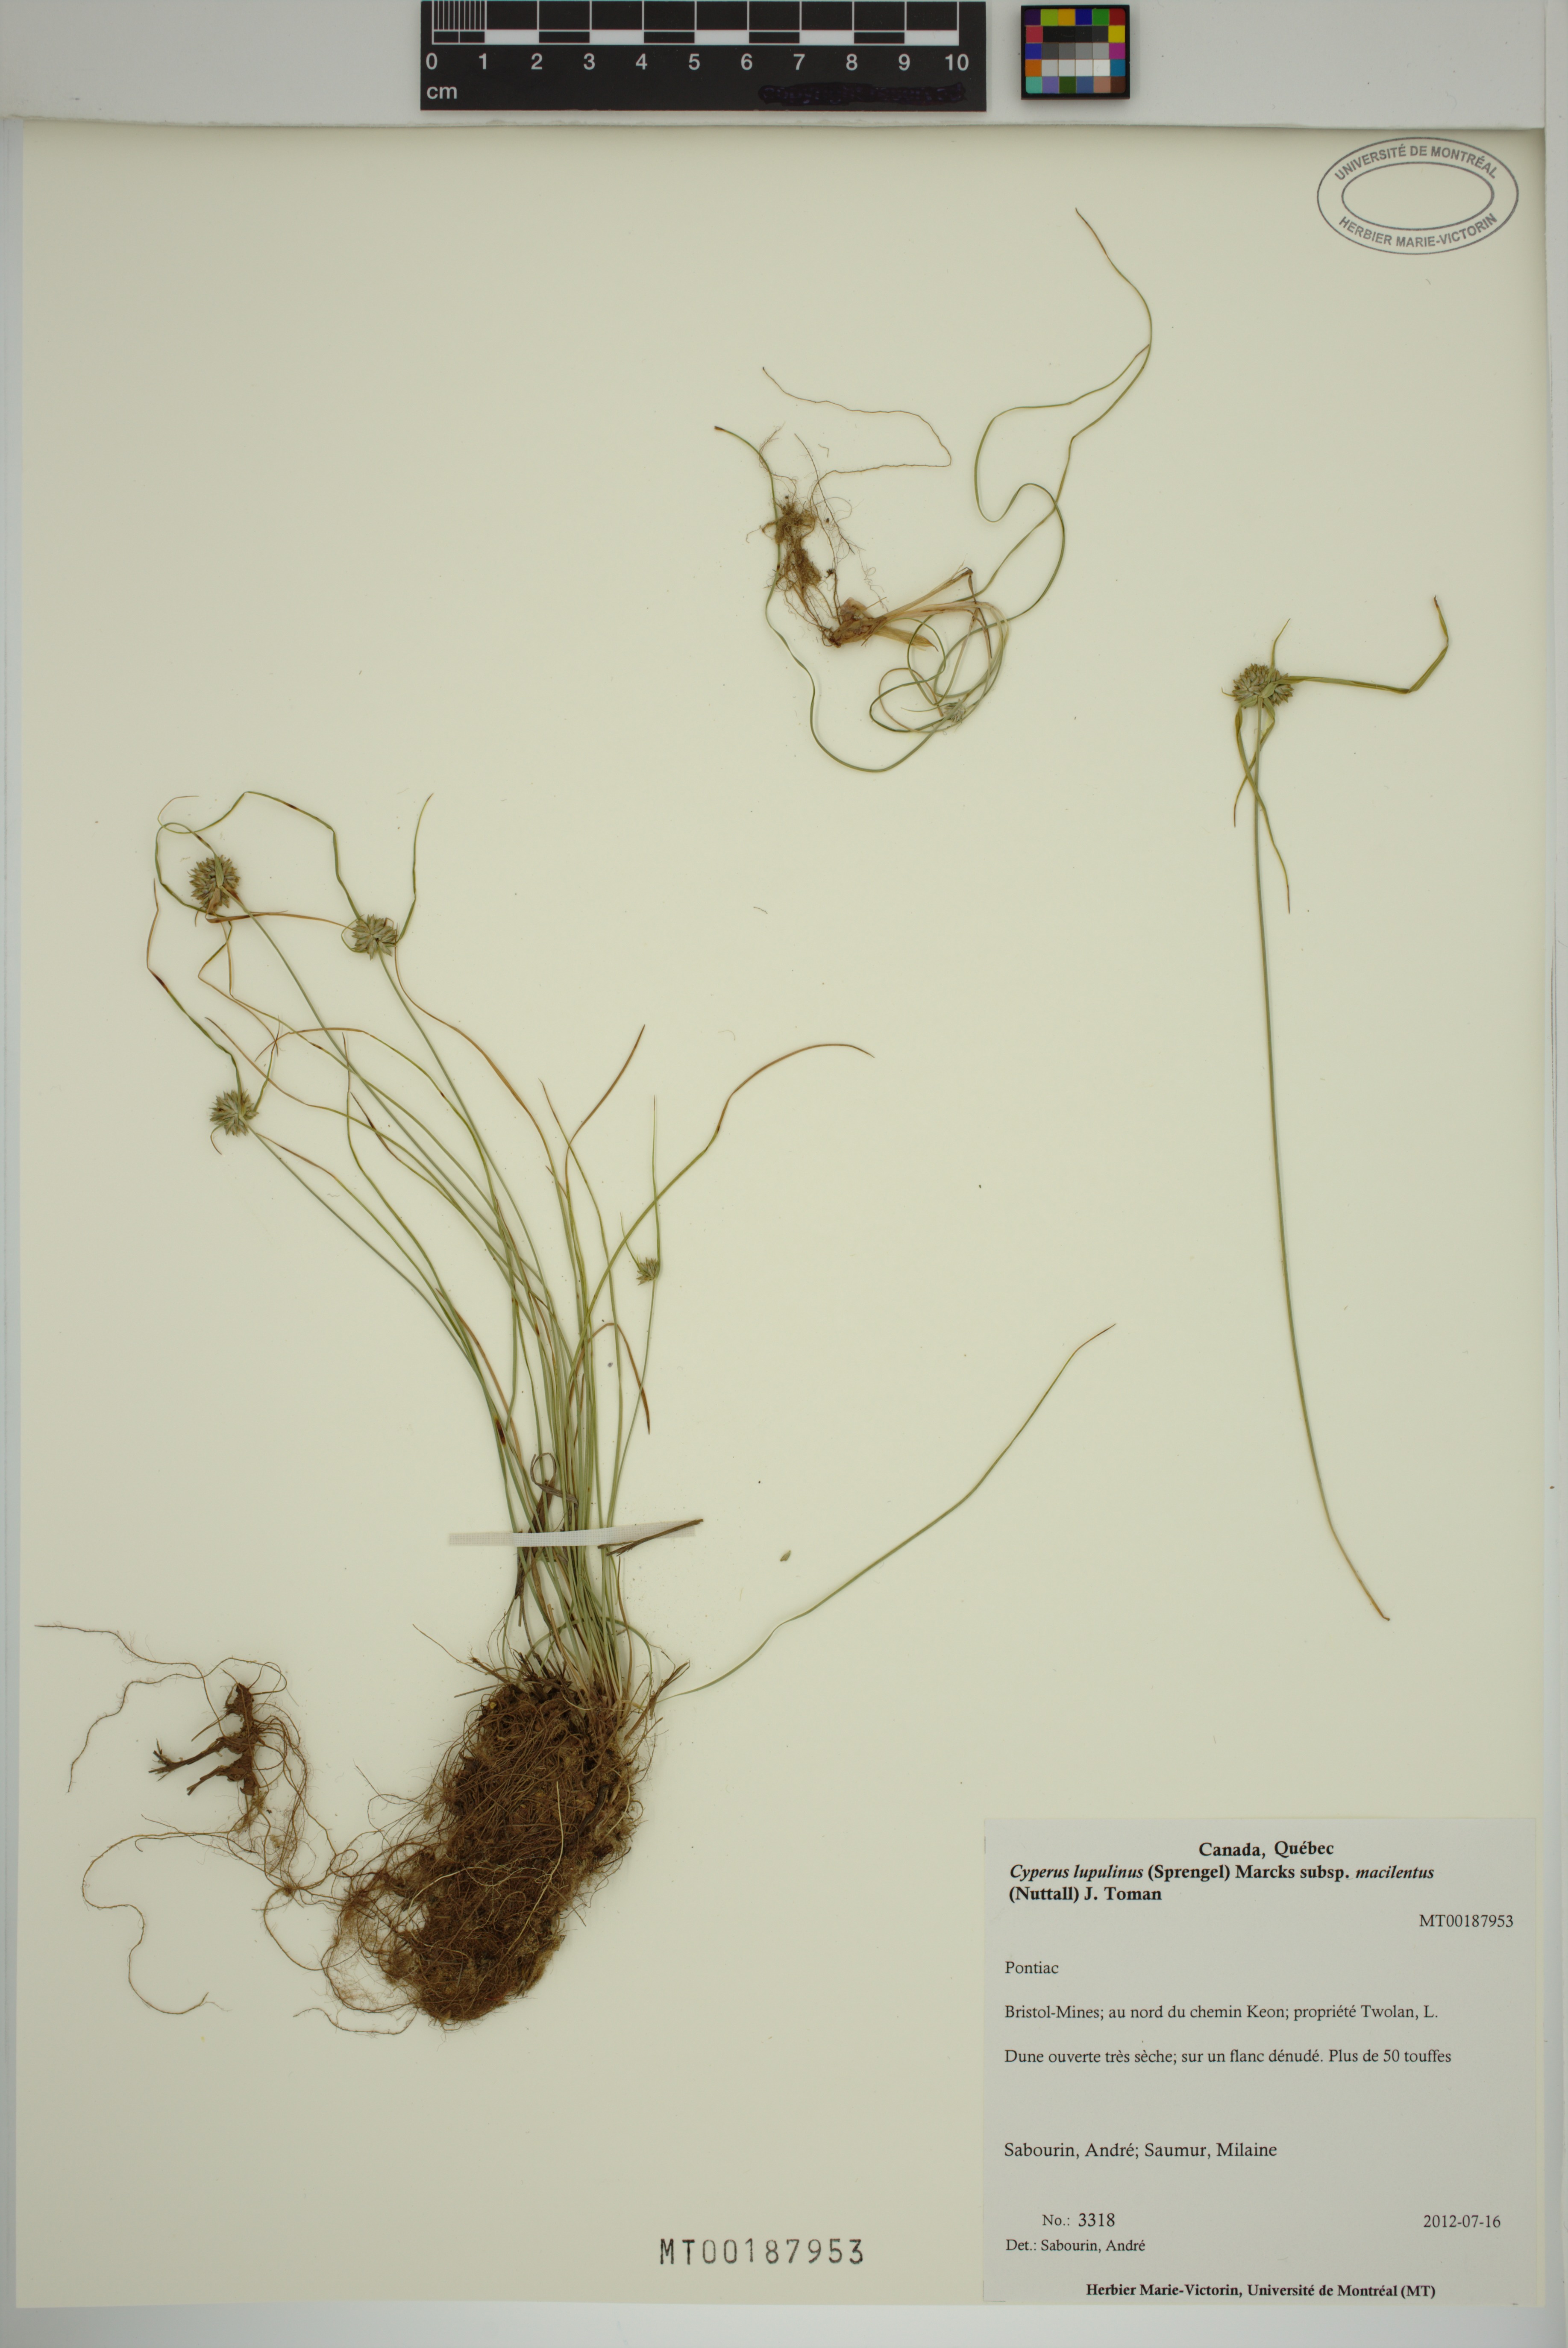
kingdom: Plantae
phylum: Tracheophyta
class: Liliopsida
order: Poales
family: Cyperaceae
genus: Cyperus
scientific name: Cyperus lupulinus
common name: Great plains flatsedge
